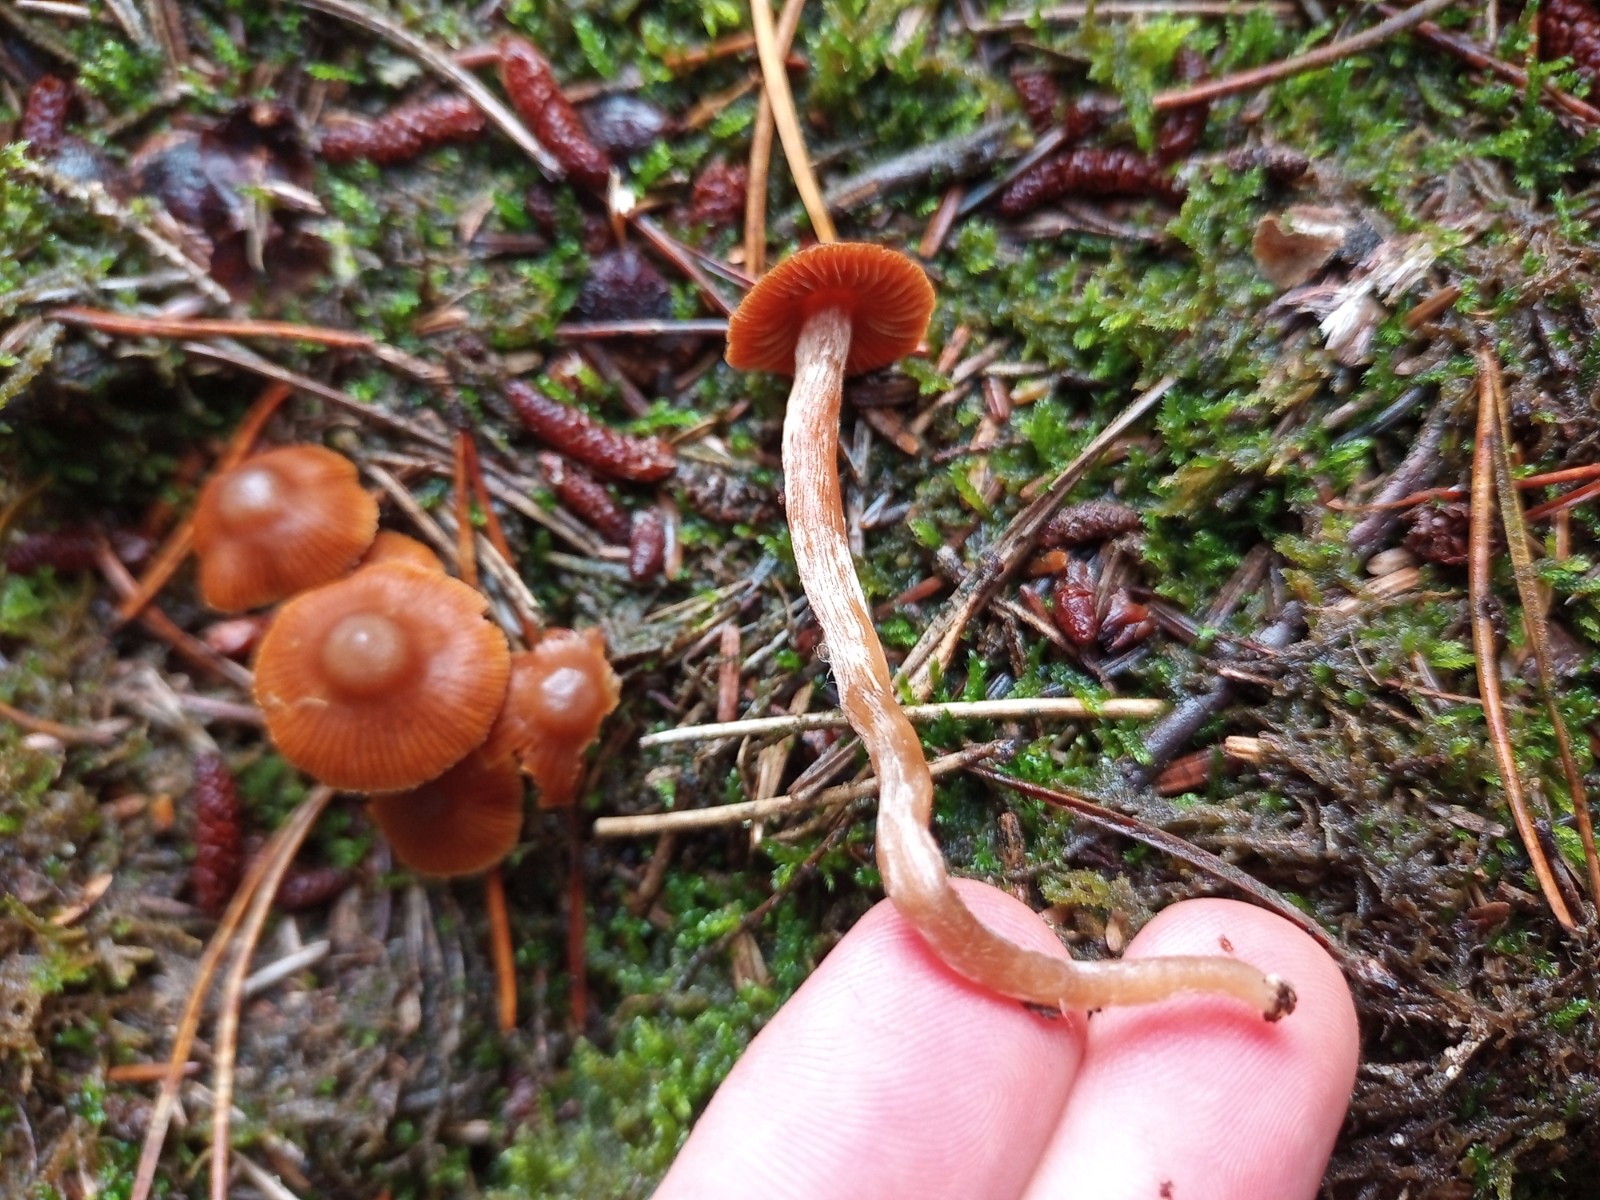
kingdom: Fungi
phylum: Basidiomycota
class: Agaricomycetes
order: Agaricales
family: Cortinariaceae
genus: Cortinarius
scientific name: Cortinarius
